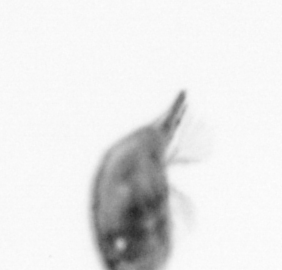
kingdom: Animalia
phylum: Arthropoda
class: Maxillopoda
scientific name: Maxillopoda
